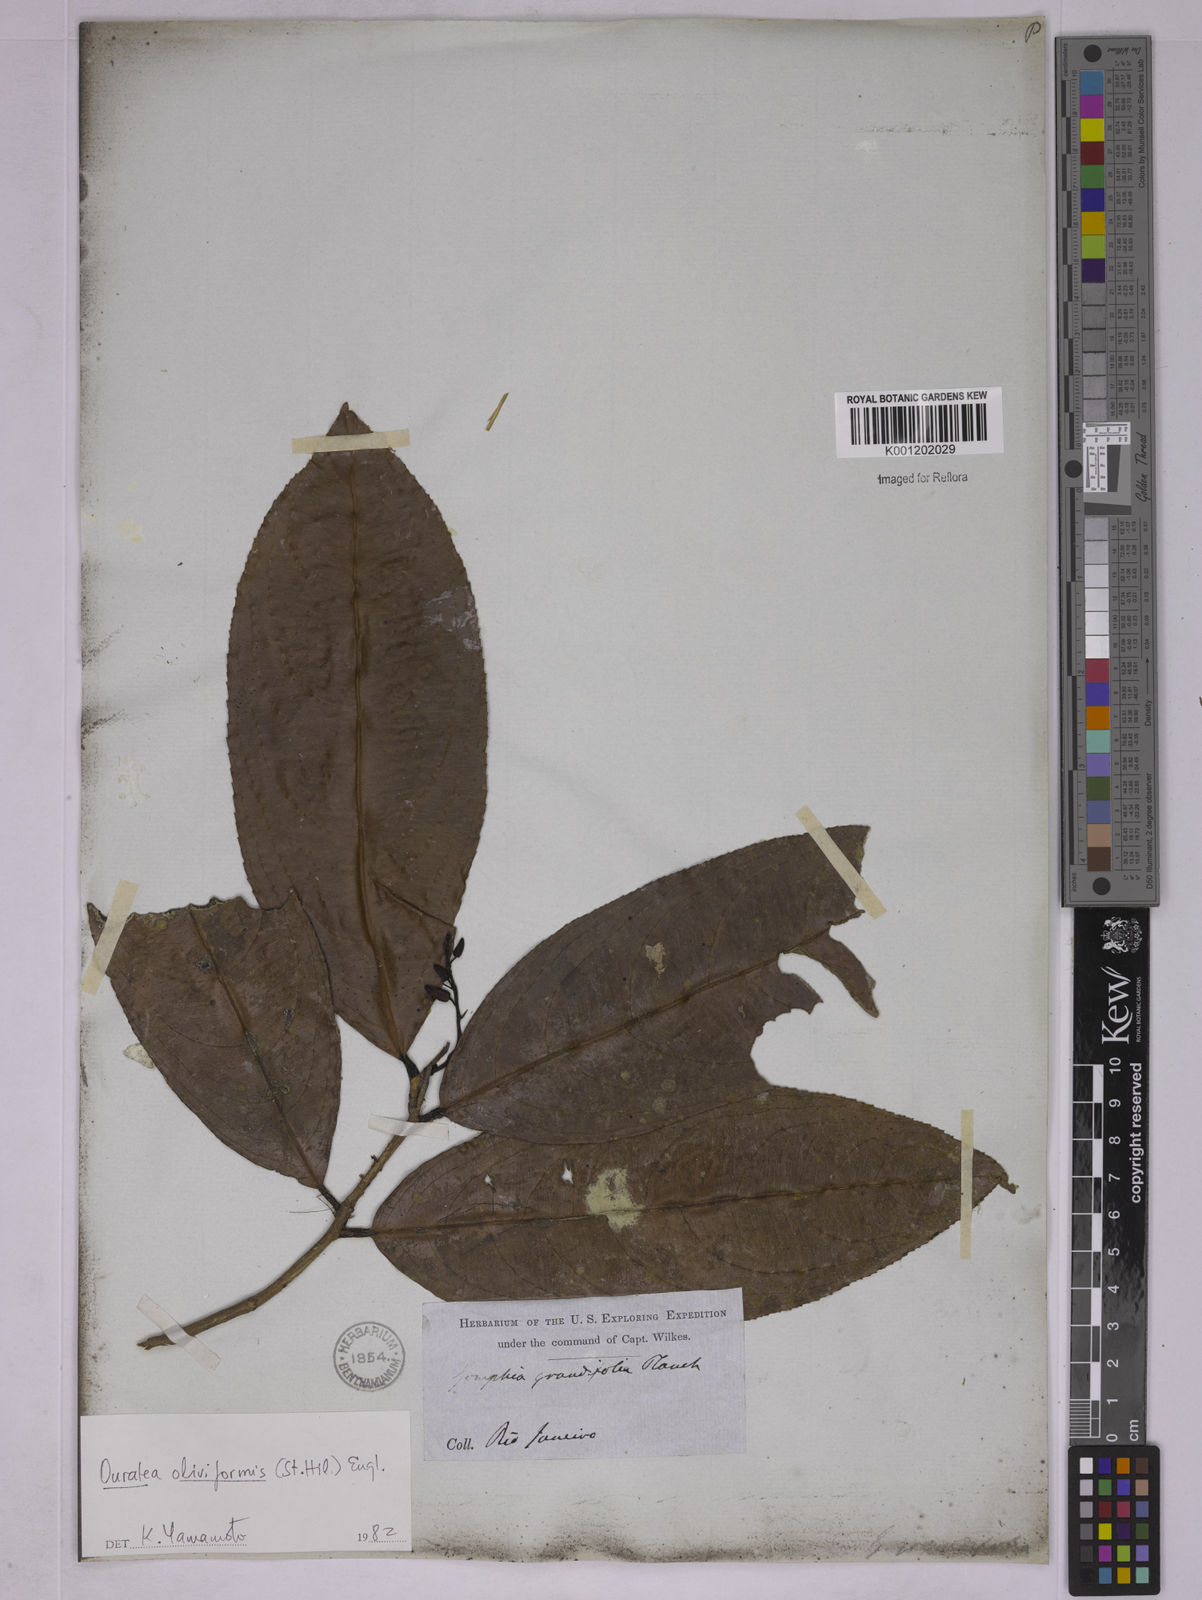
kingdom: Plantae
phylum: Tracheophyta
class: Magnoliopsida
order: Malpighiales
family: Ochnaceae
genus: Ouratea
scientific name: Ouratea oliviformis
